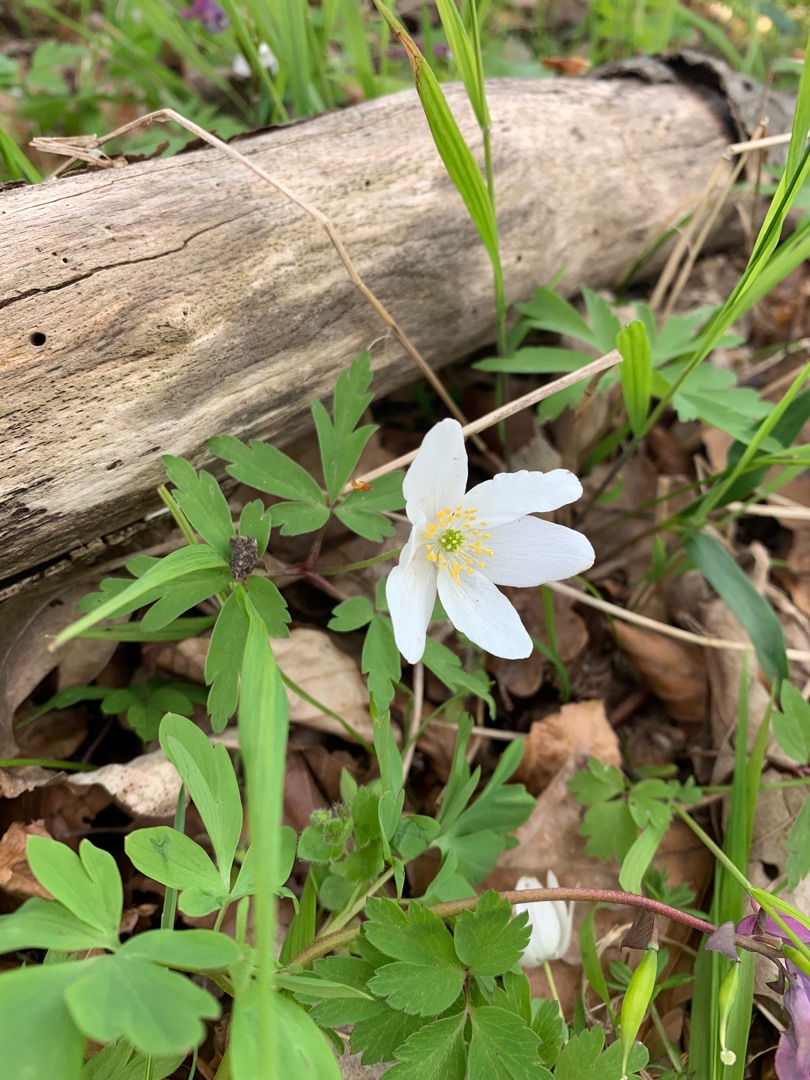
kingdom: Plantae
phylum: Tracheophyta
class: Magnoliopsida
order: Ranunculales
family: Ranunculaceae
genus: Anemone
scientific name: Anemone nemorosa
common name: Hvid anemone
